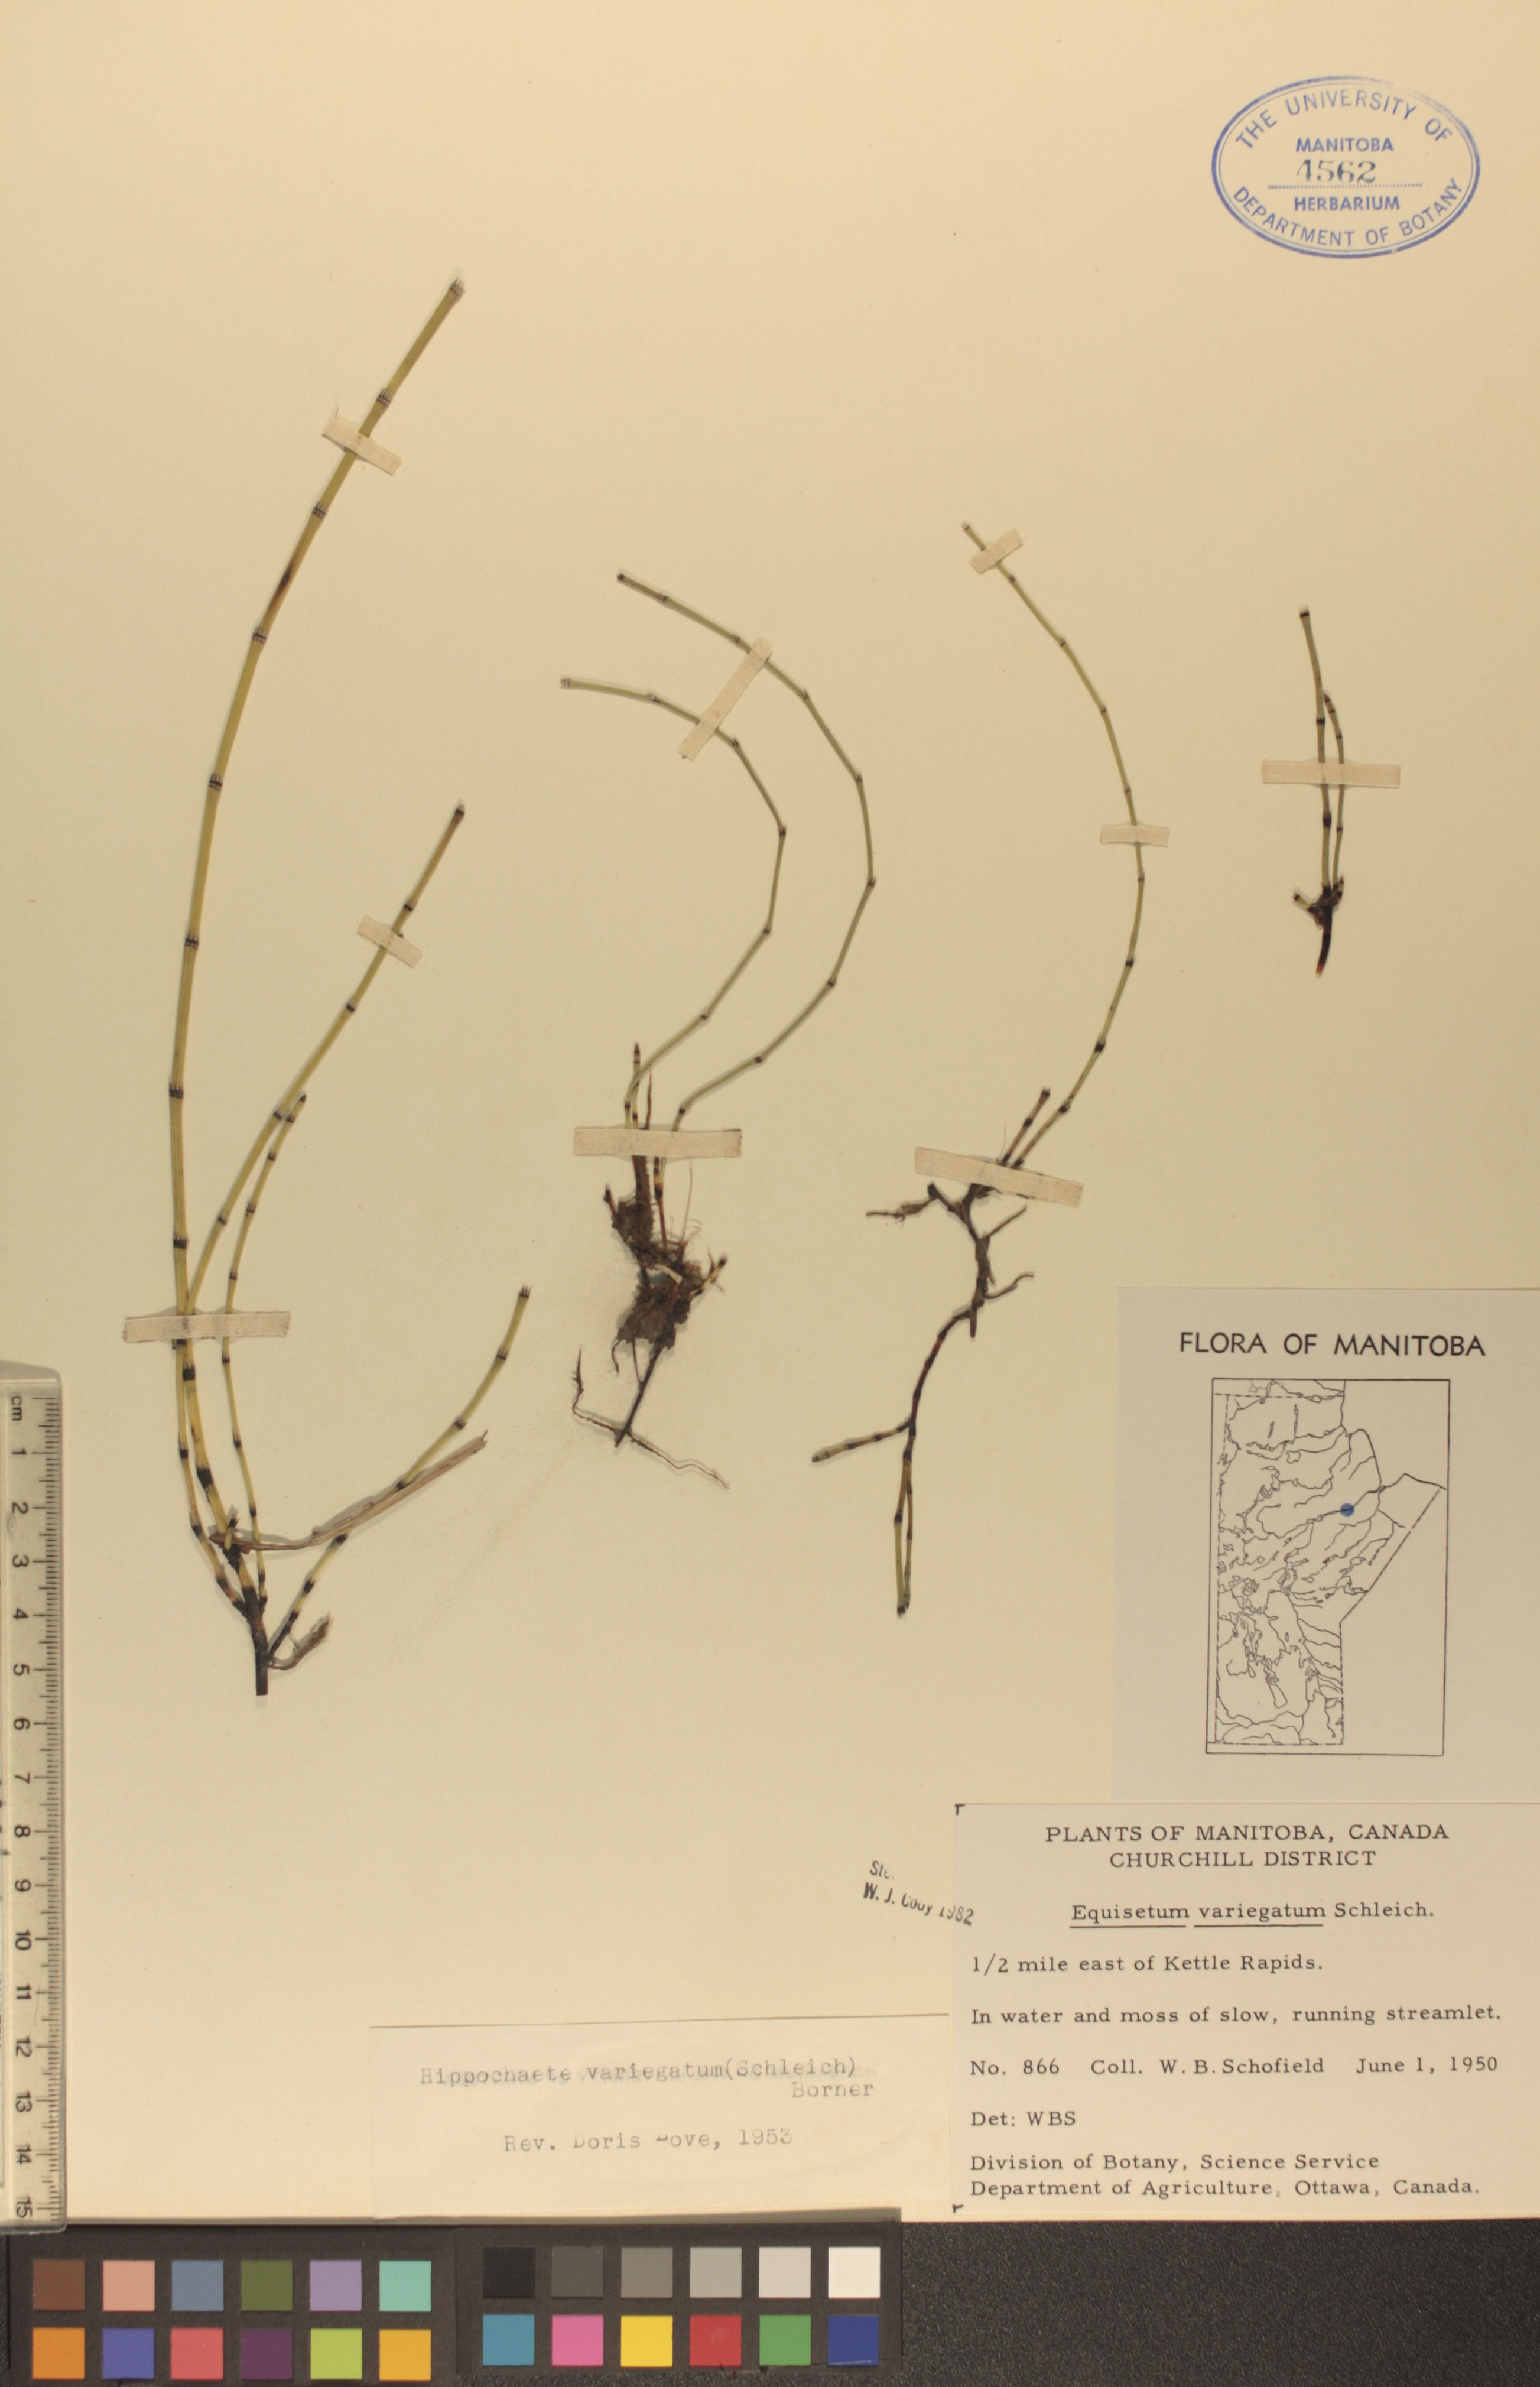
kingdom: Plantae
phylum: Tracheophyta
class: Polypodiopsida
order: Equisetales
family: Equisetaceae
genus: Equisetum
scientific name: Equisetum variegatum
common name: Variegated horsetail
